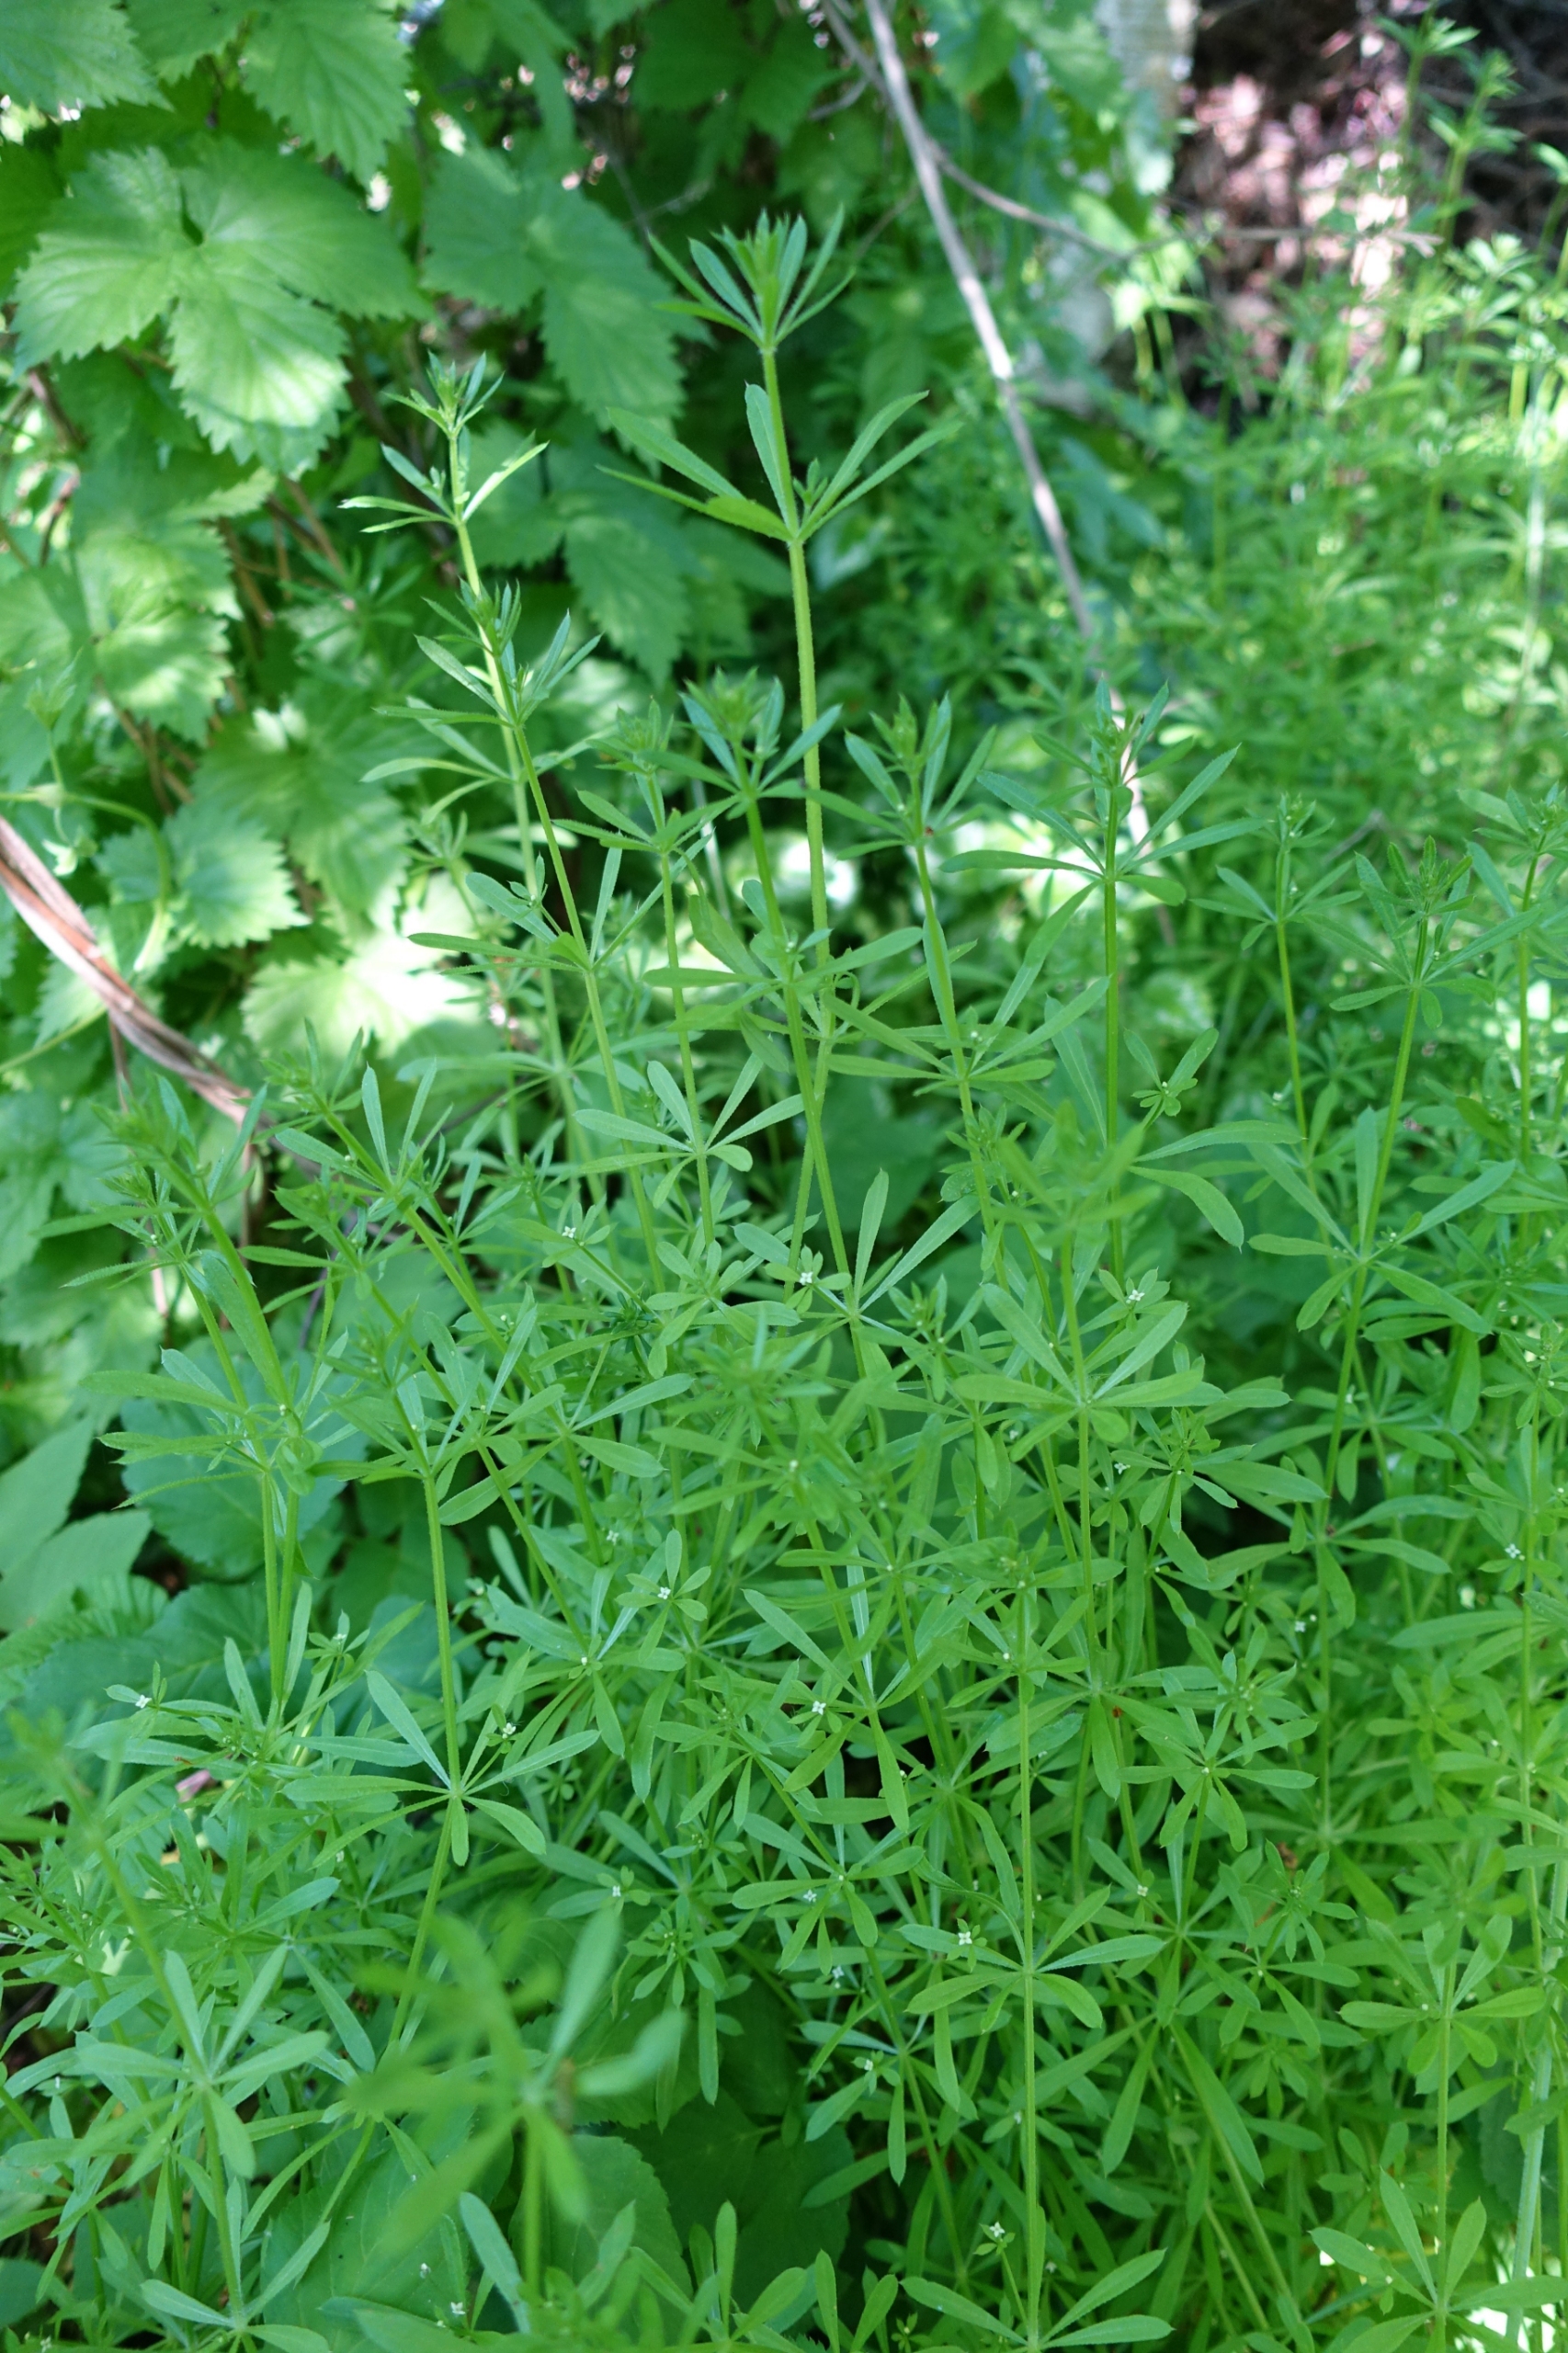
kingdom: Plantae
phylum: Tracheophyta
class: Magnoliopsida
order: Gentianales
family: Rubiaceae
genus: Galium
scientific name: Galium aparine
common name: Burre-snerre
